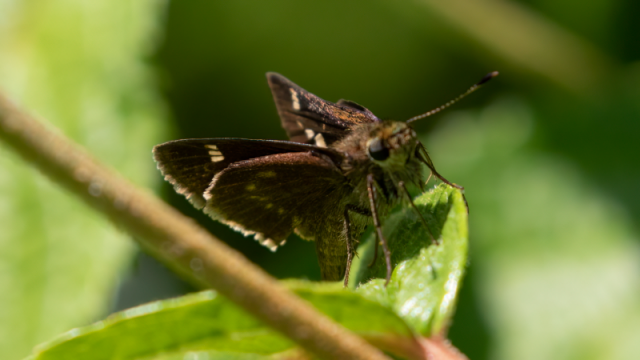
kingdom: Animalia
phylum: Arthropoda
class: Insecta
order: Lepidoptera
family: Hesperiidae
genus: Vernia
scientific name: Vernia verna
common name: Little Glassywing
